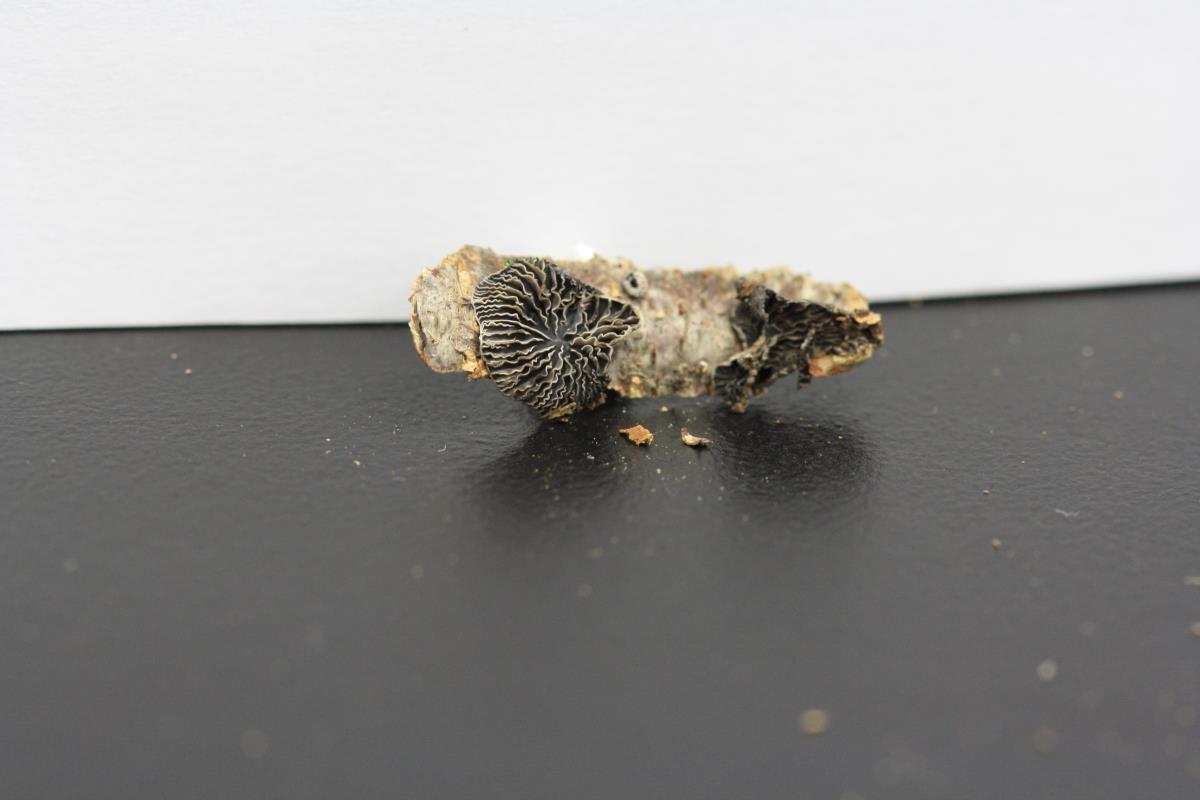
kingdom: Fungi
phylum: Basidiomycota
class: Agaricomycetes
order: Agaricales
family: Omphalotaceae
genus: Marasmiellus
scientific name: Marasmiellus violaceogriseus
